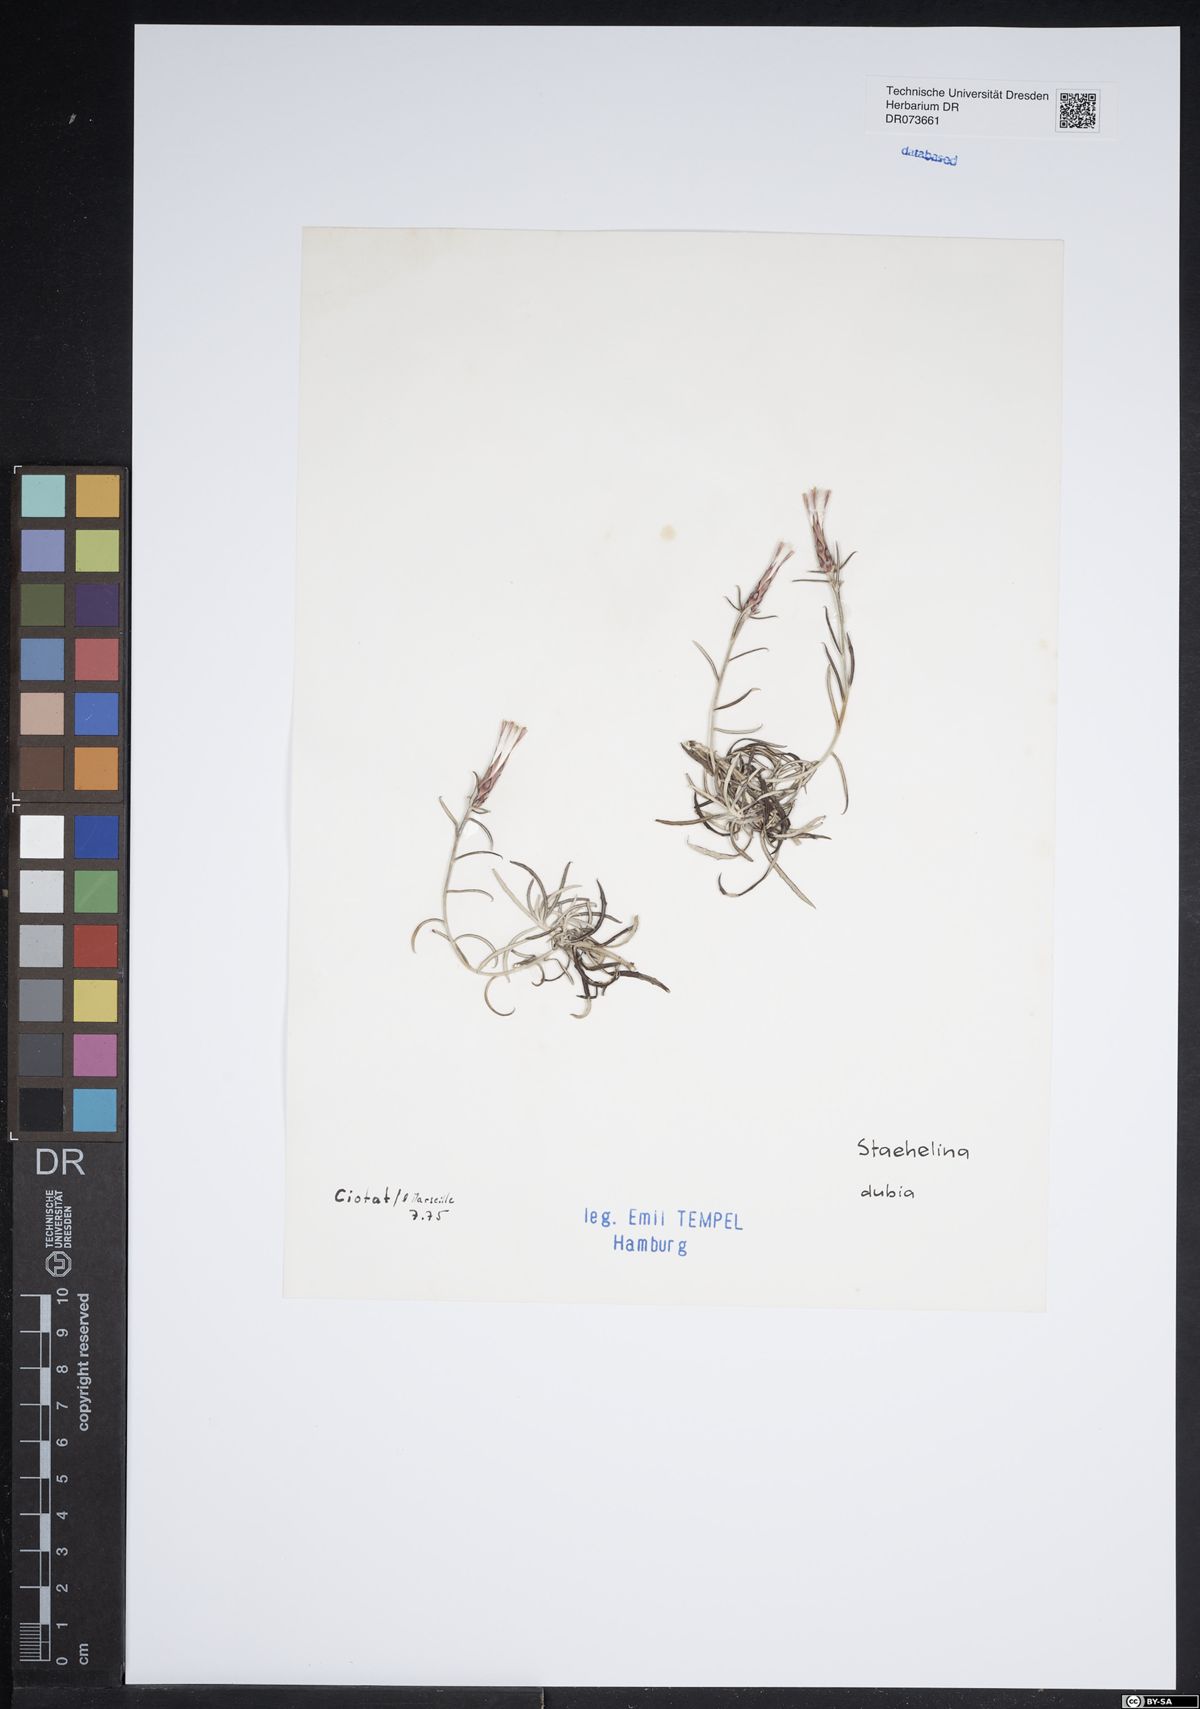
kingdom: Plantae
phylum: Tracheophyta
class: Magnoliopsida
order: Asterales
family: Asteraceae
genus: Staehelina
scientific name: Staehelina dubia
